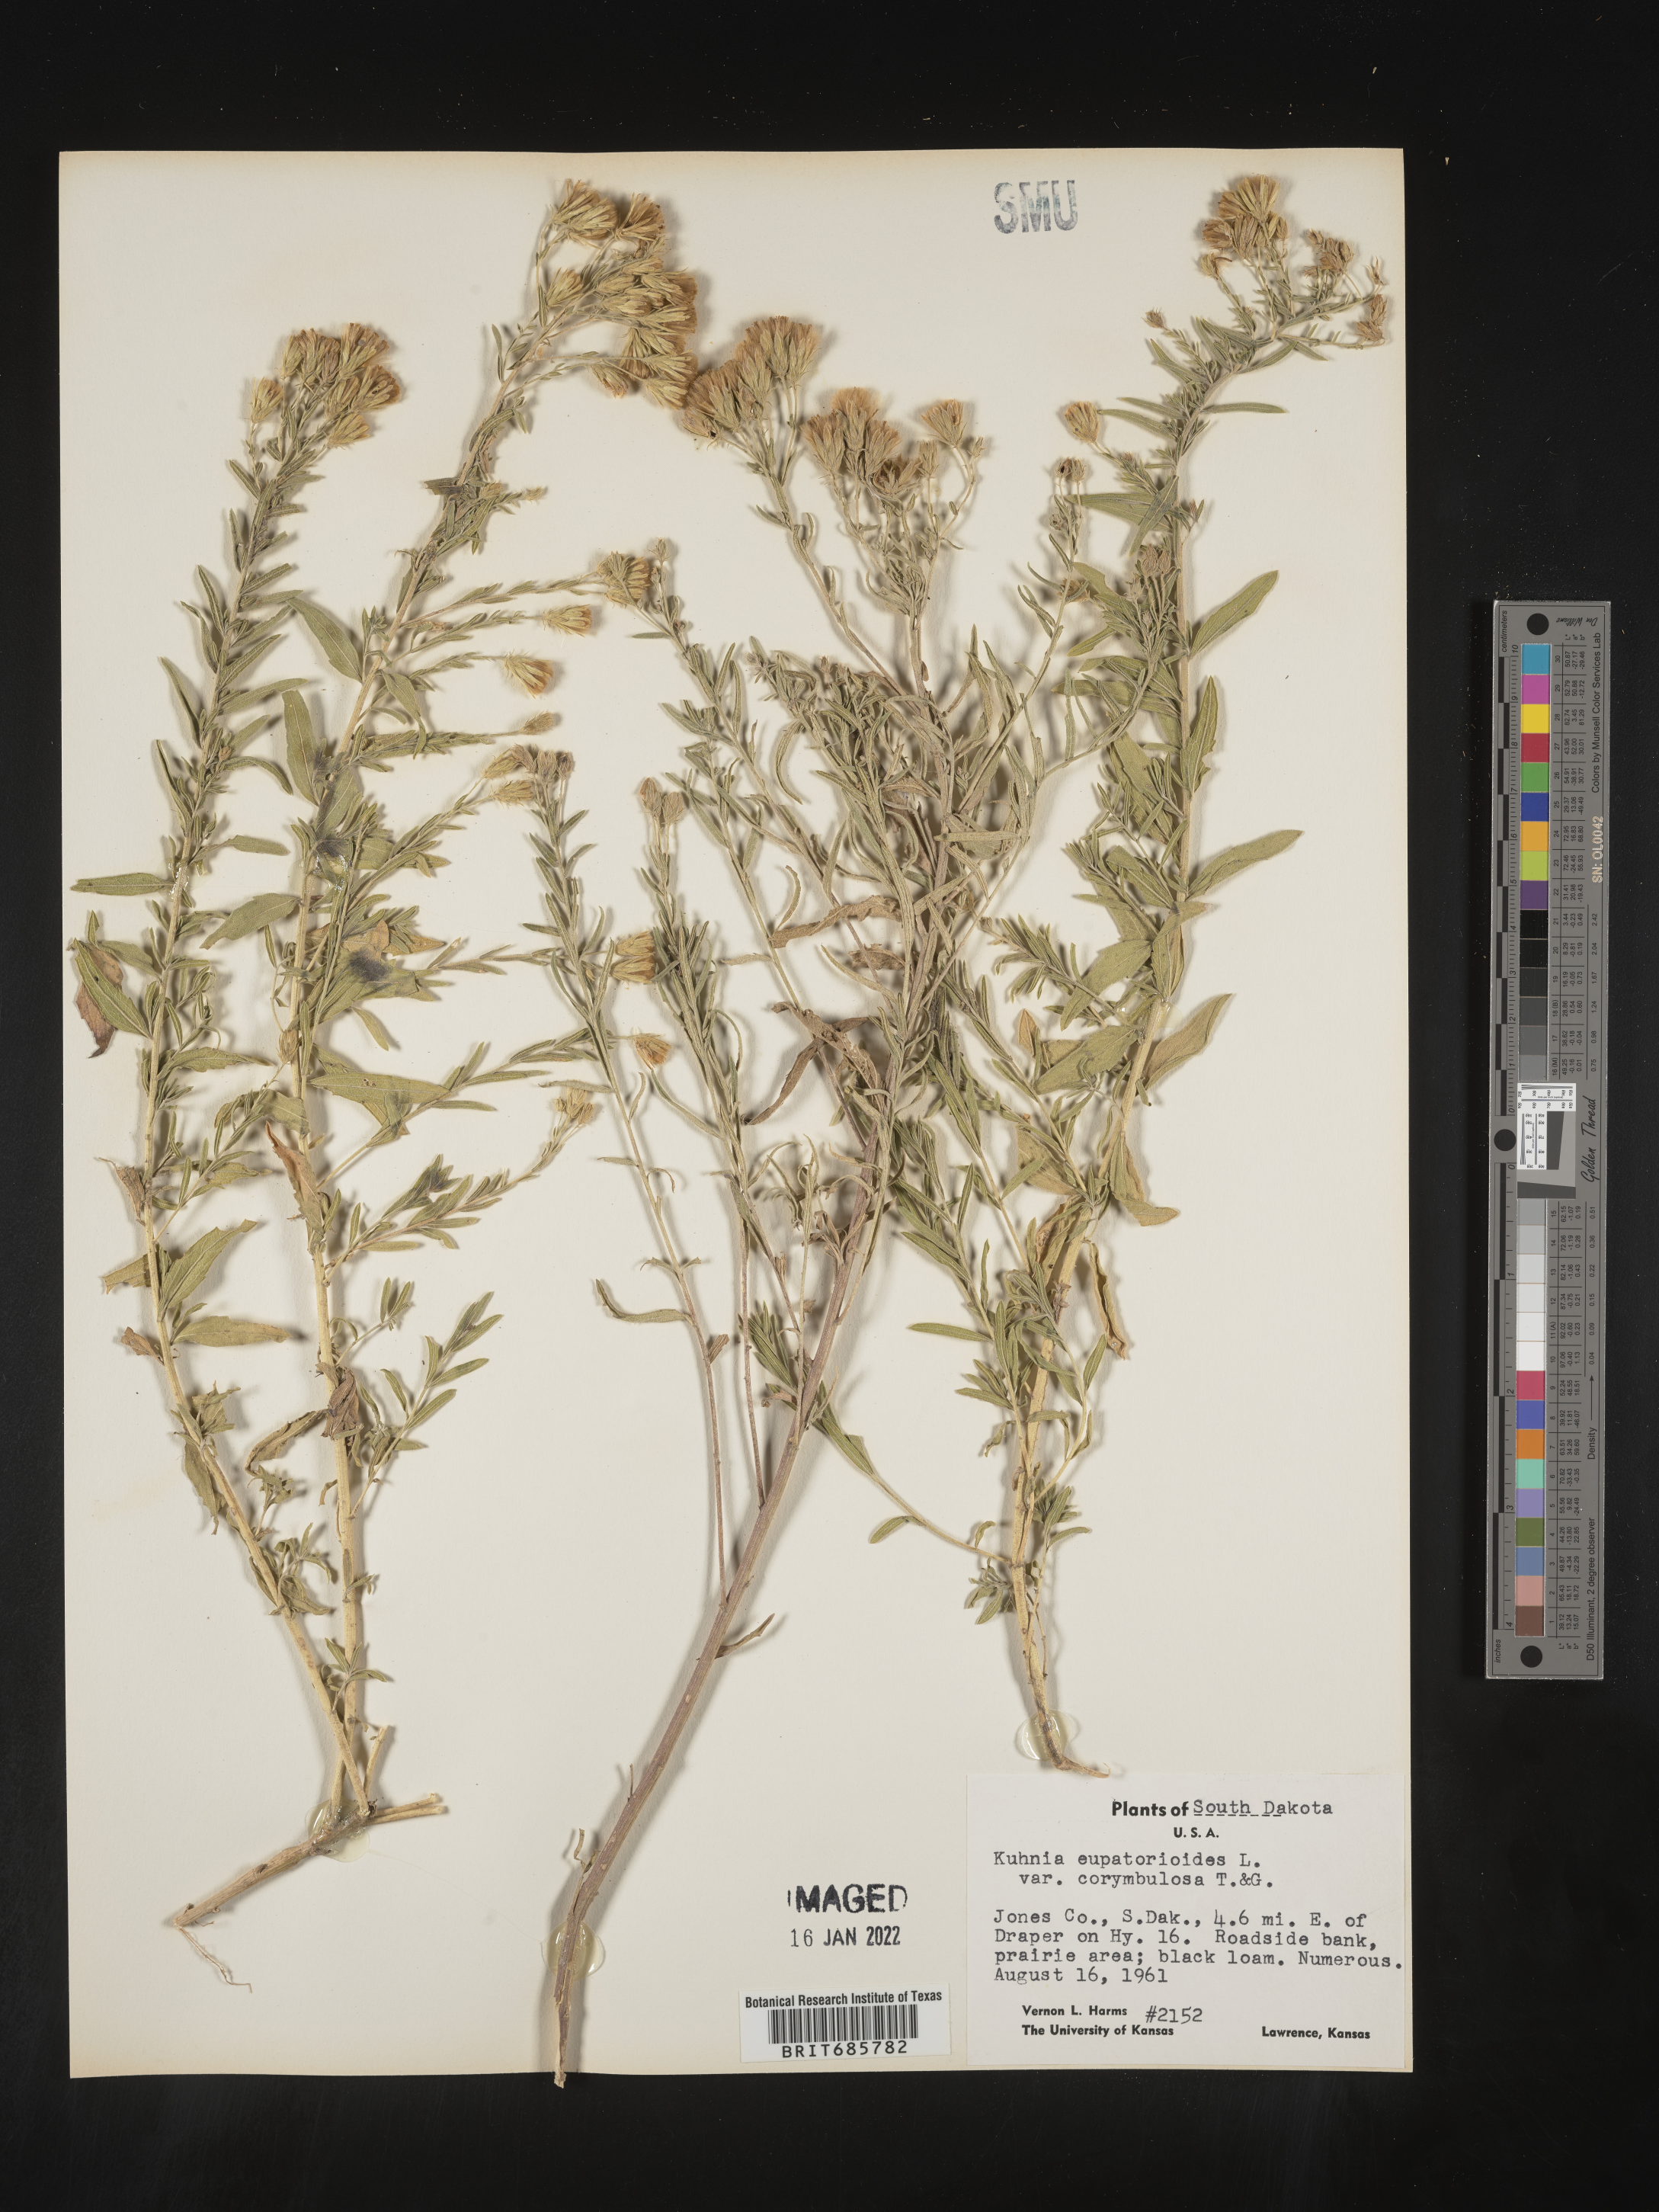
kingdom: Plantae
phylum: Tracheophyta
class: Magnoliopsida
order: Asterales
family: Asteraceae
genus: Brickellia
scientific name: Brickellia eupatorioides
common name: False boneset
